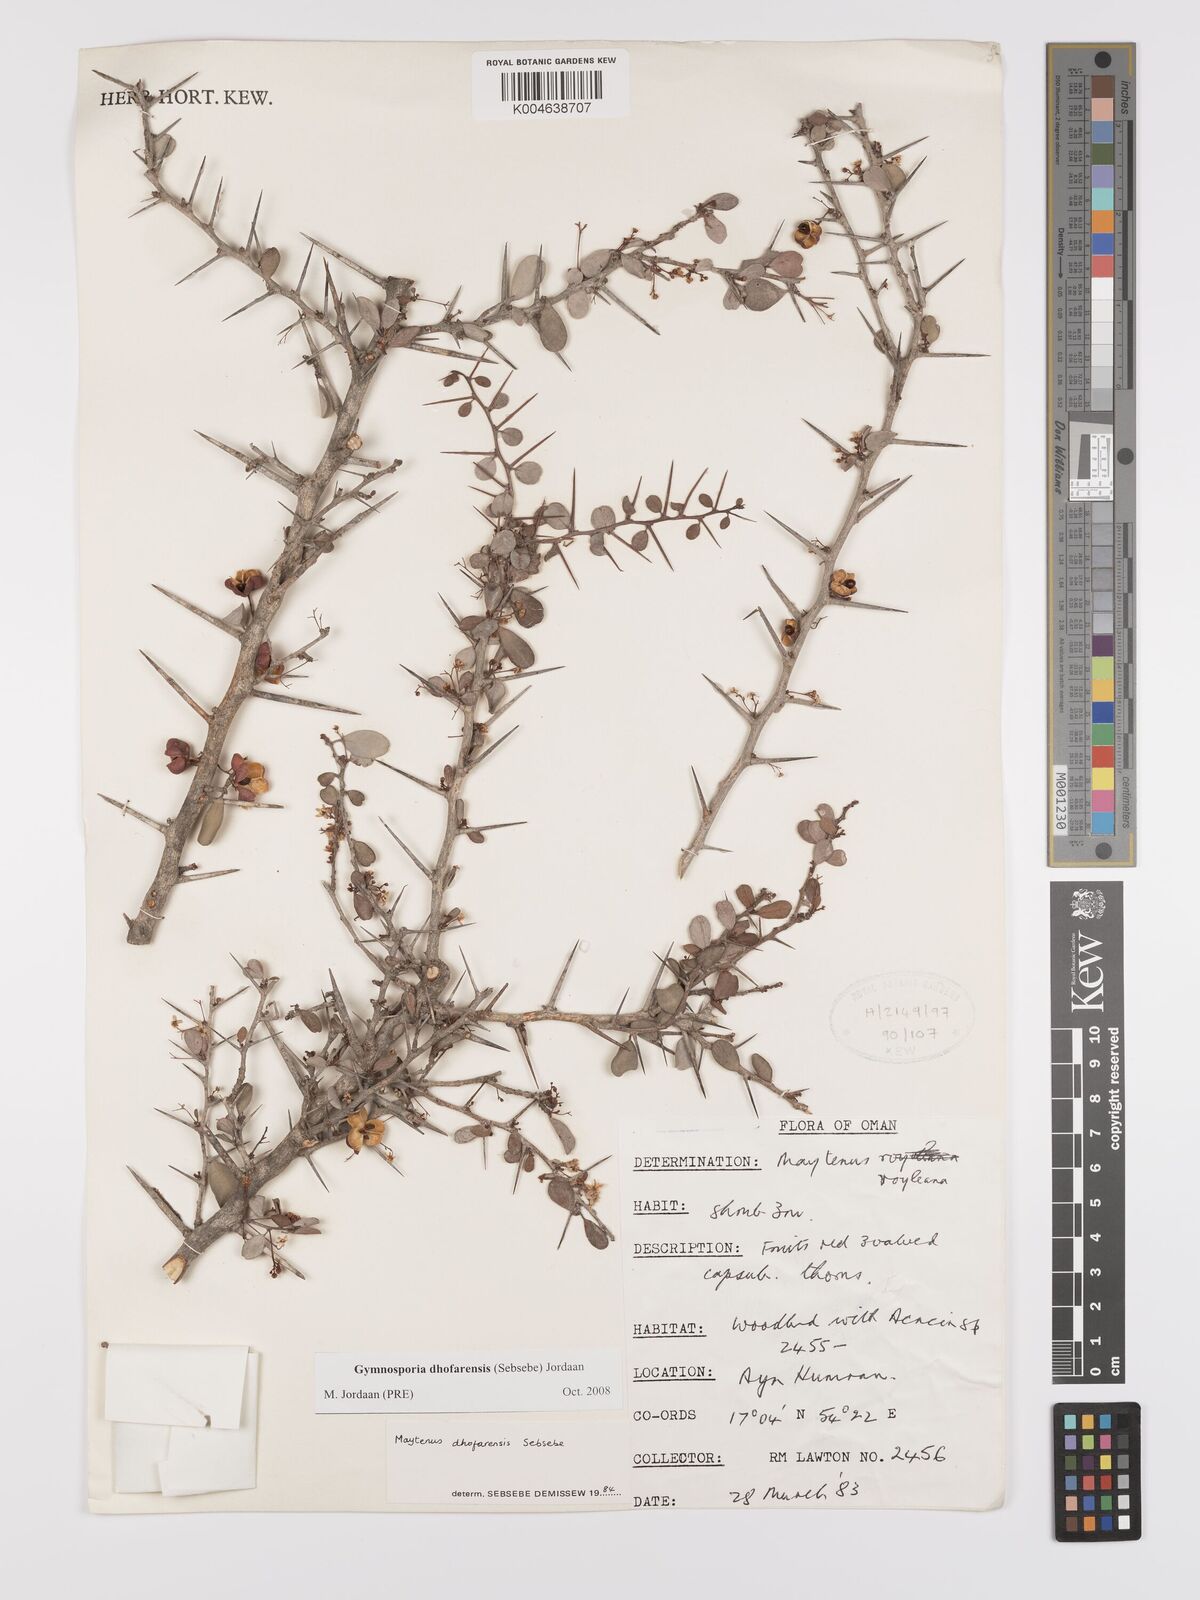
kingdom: Plantae
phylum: Tracheophyta
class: Magnoliopsida
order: Celastrales
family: Celastraceae
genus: Gymnosporia
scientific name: Gymnosporia dhofarensis
